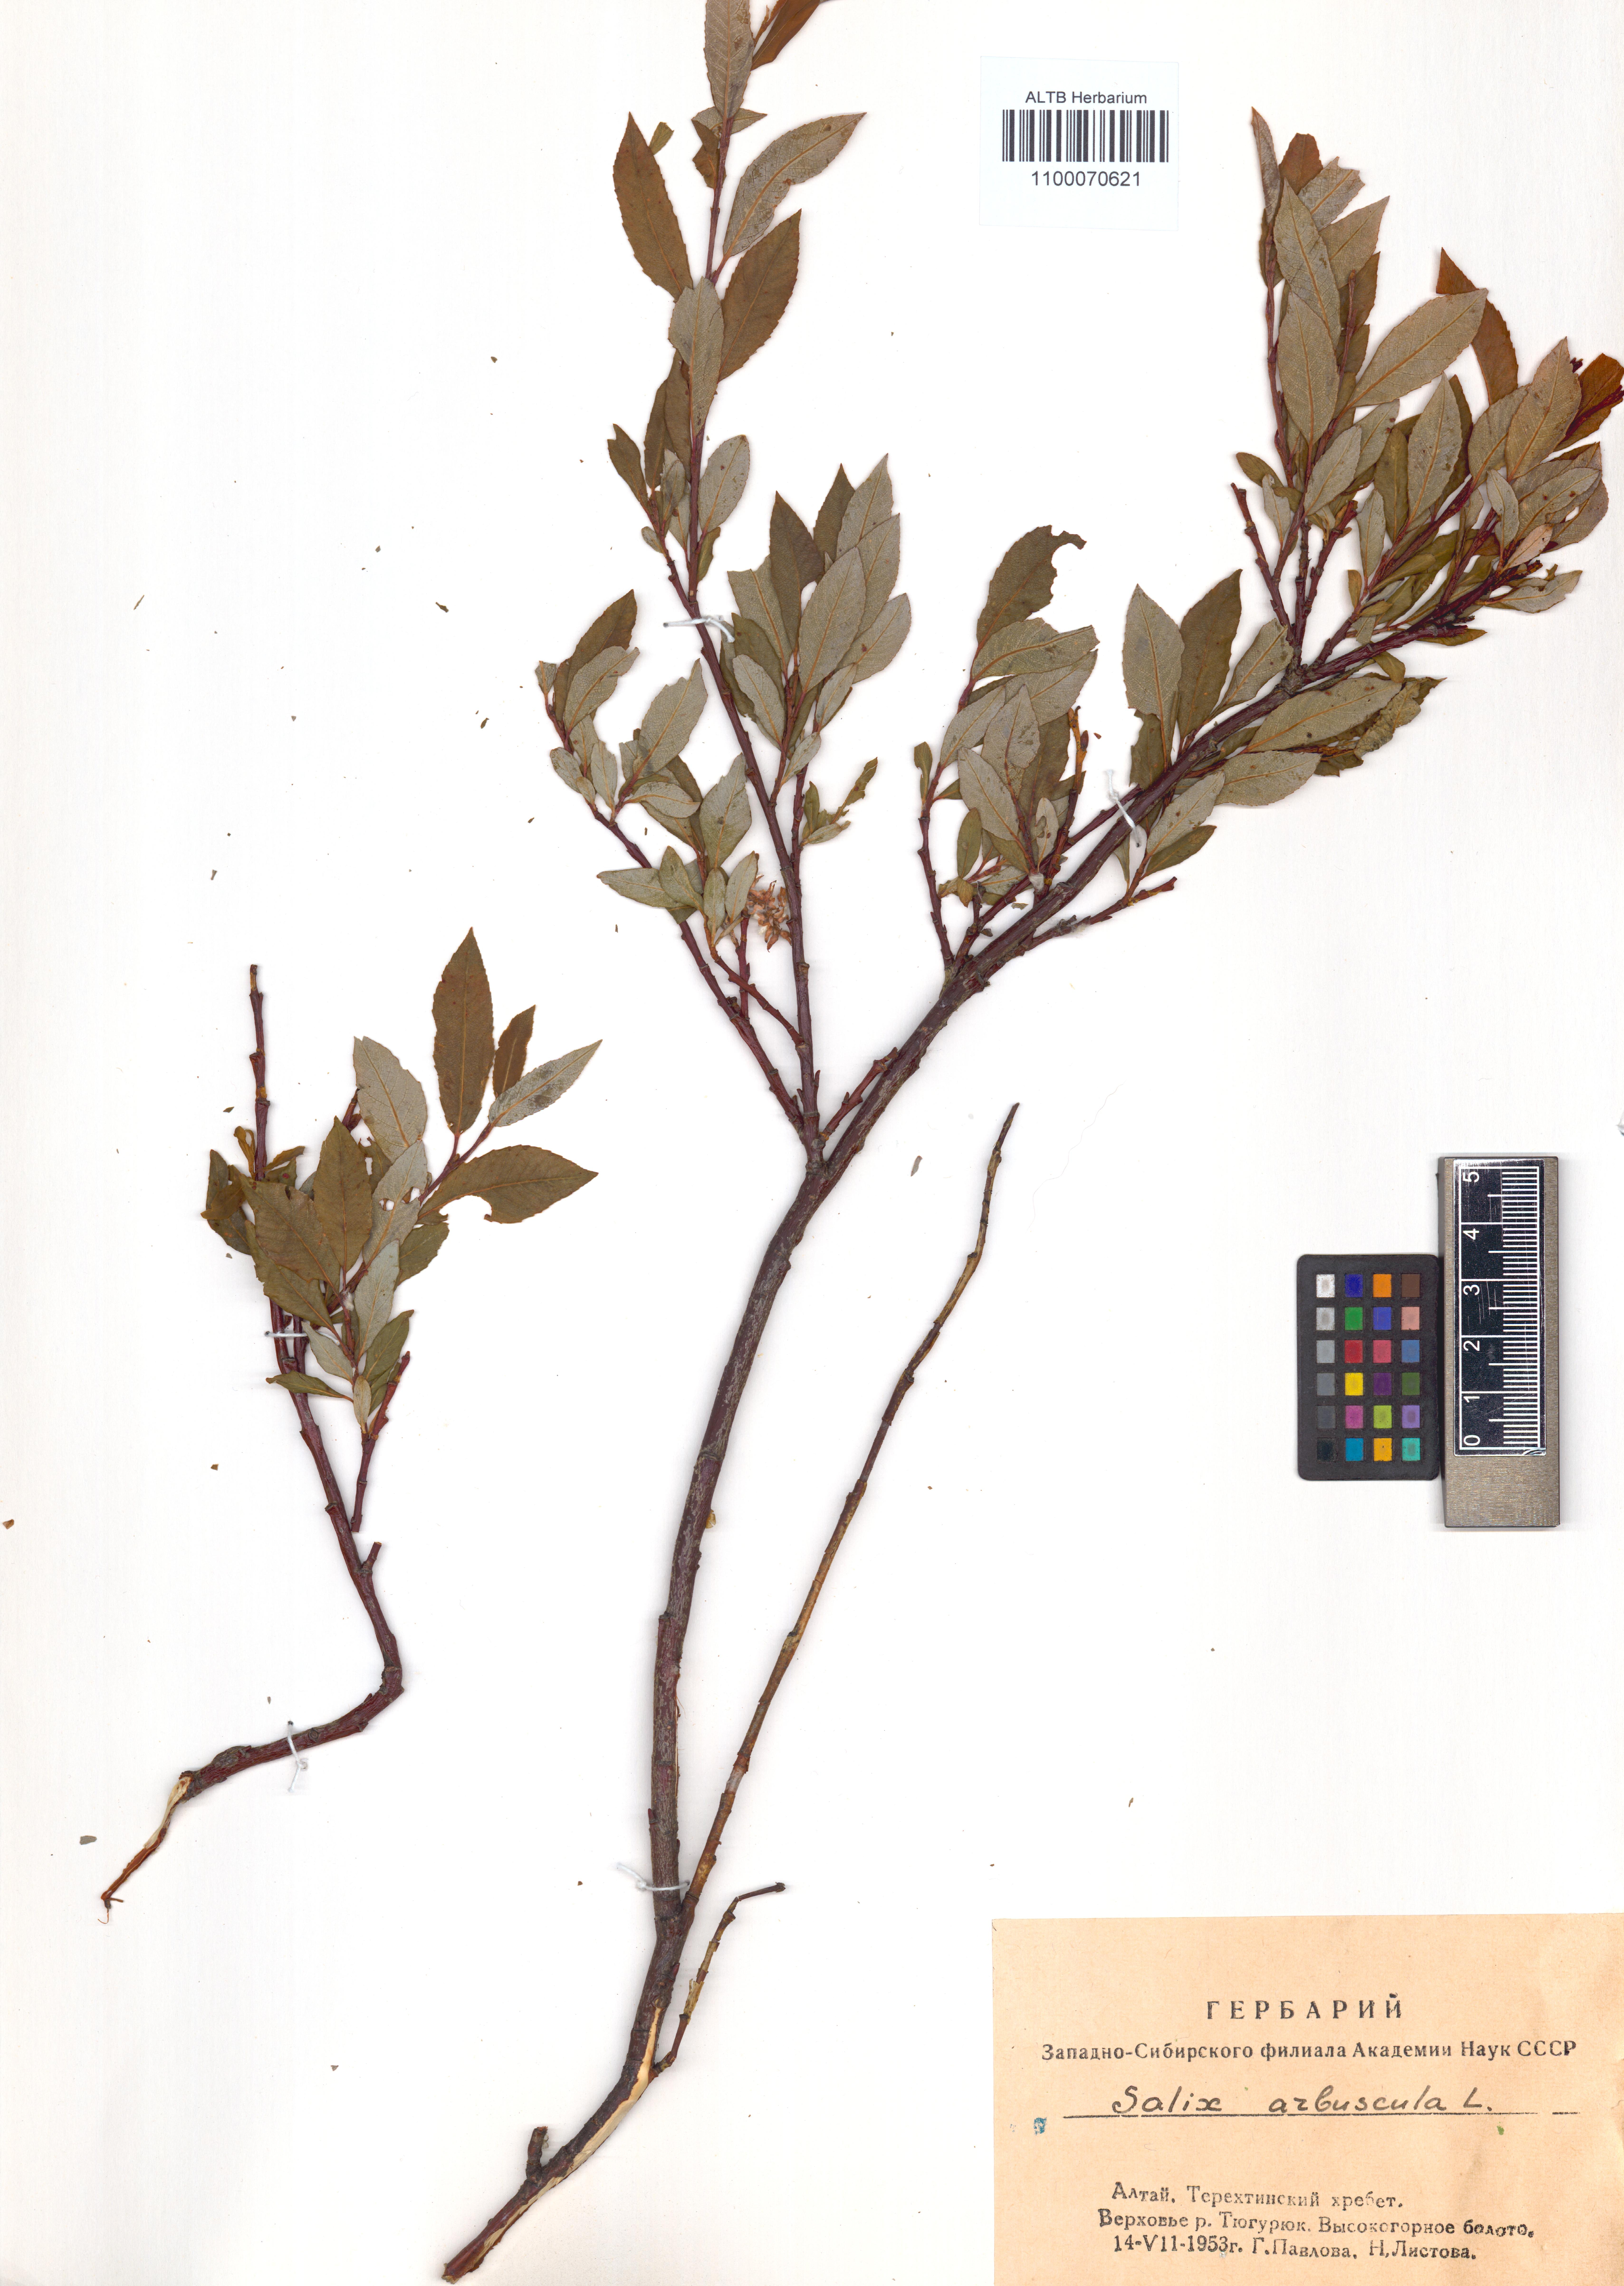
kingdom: Plantae
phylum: Tracheophyta
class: Magnoliopsida
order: Malpighiales
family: Salicaceae
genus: Salix
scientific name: Salix arbuscula
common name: Mountain willow
